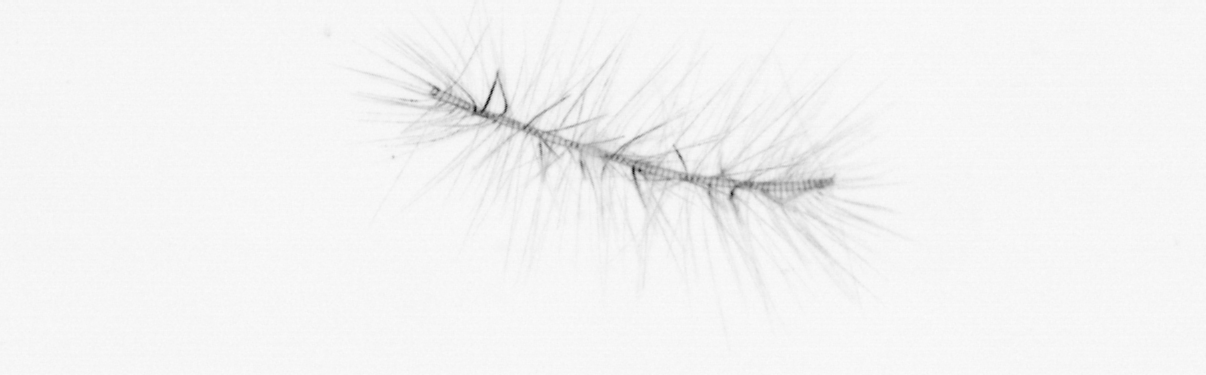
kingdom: Chromista
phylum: Ochrophyta
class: Bacillariophyceae
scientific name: Bacillariophyceae
